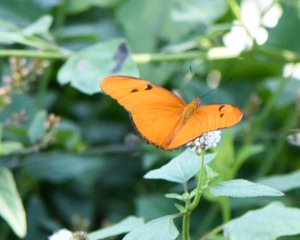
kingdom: Animalia
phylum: Arthropoda
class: Insecta
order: Lepidoptera
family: Nymphalidae
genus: Dryas
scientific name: Dryas iulia
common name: Julia
